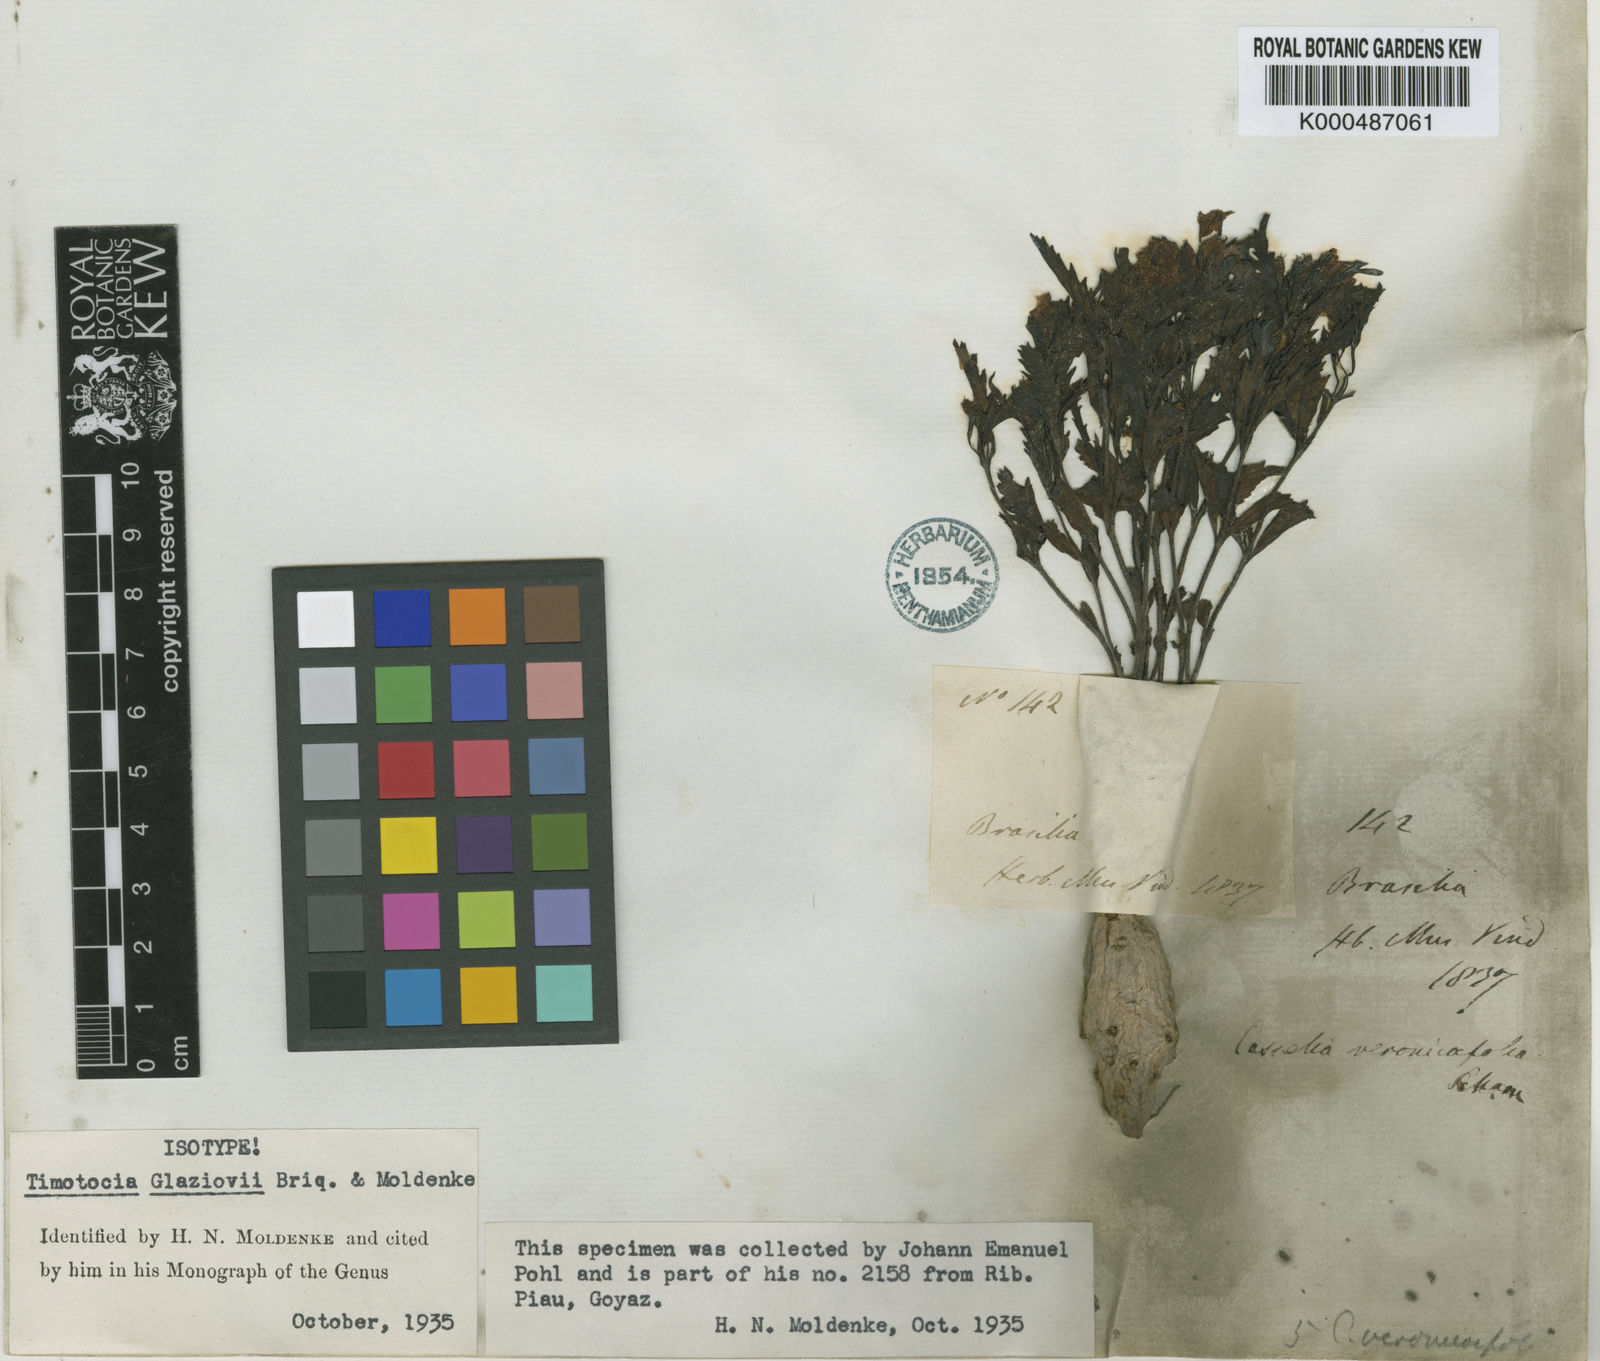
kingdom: Plantae
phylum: Tracheophyta
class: Magnoliopsida
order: Lamiales
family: Verbenaceae
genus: Casselia
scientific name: Casselia glaziovii
